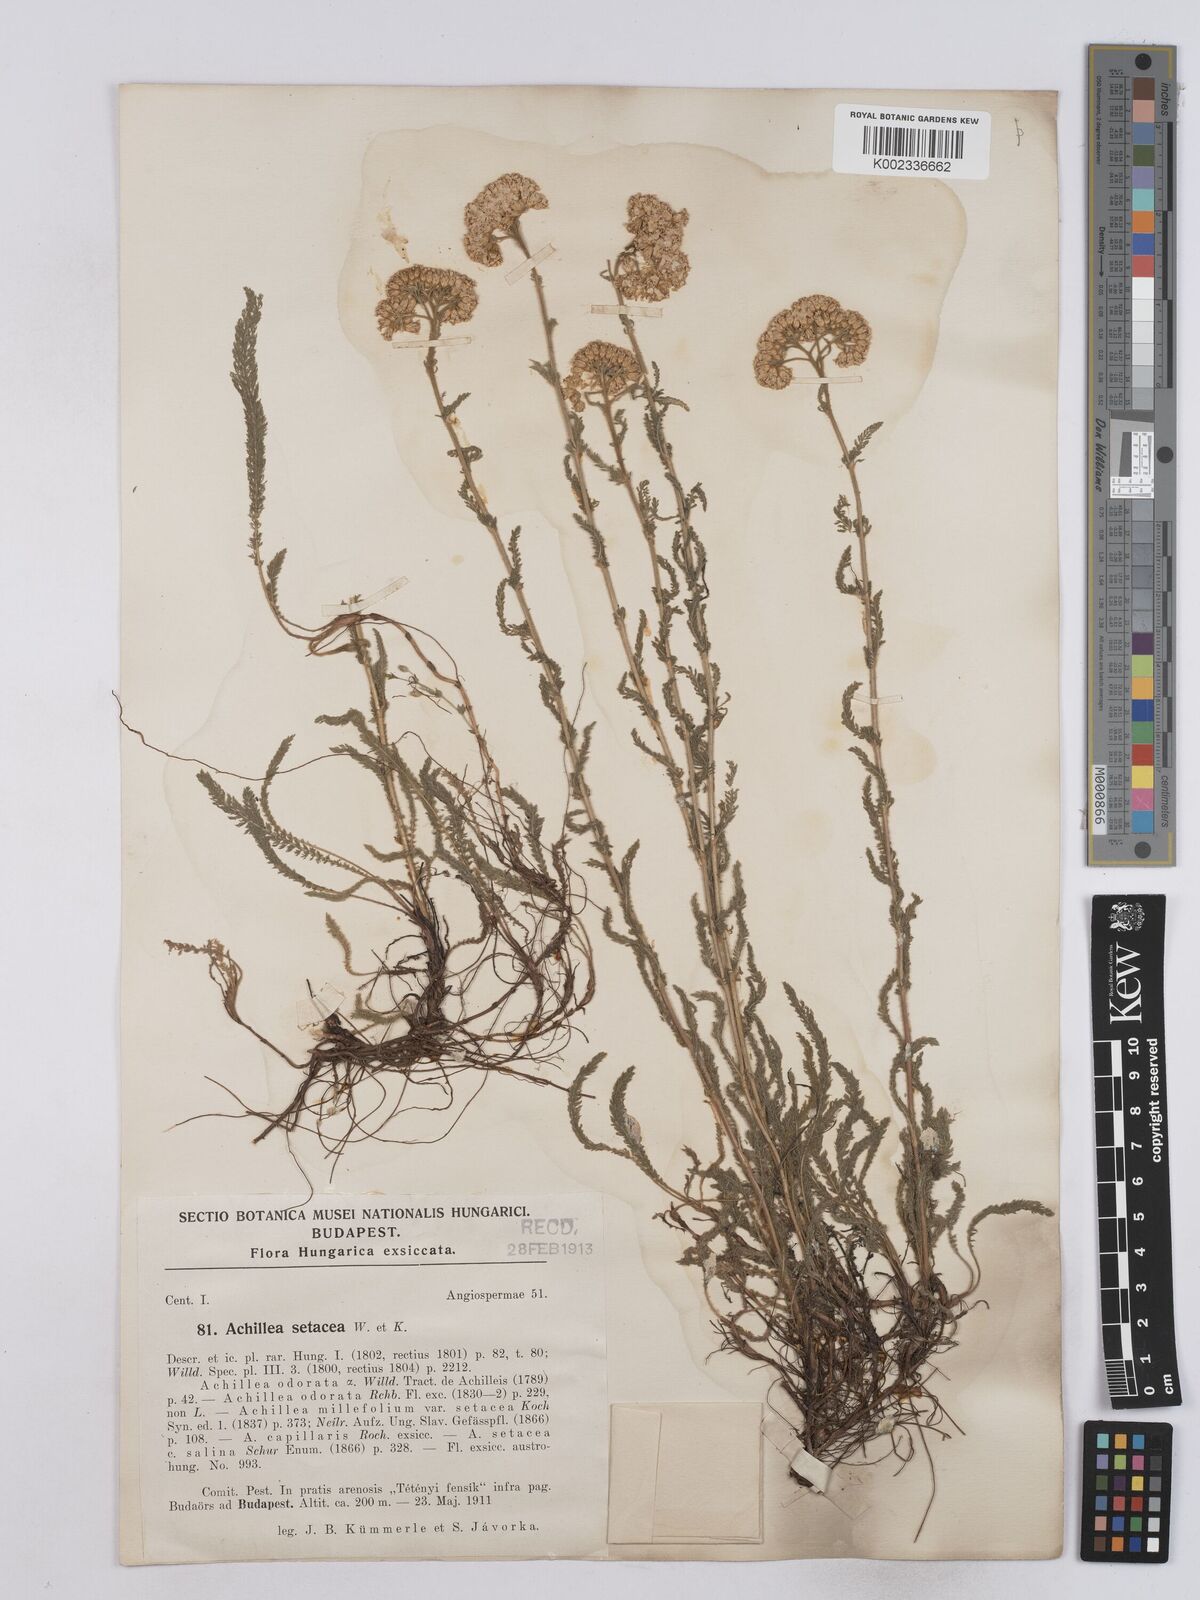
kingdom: Plantae
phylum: Tracheophyta
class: Magnoliopsida
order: Asterales
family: Asteraceae
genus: Achillea
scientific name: Achillea setacea
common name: Bristly yarrow
